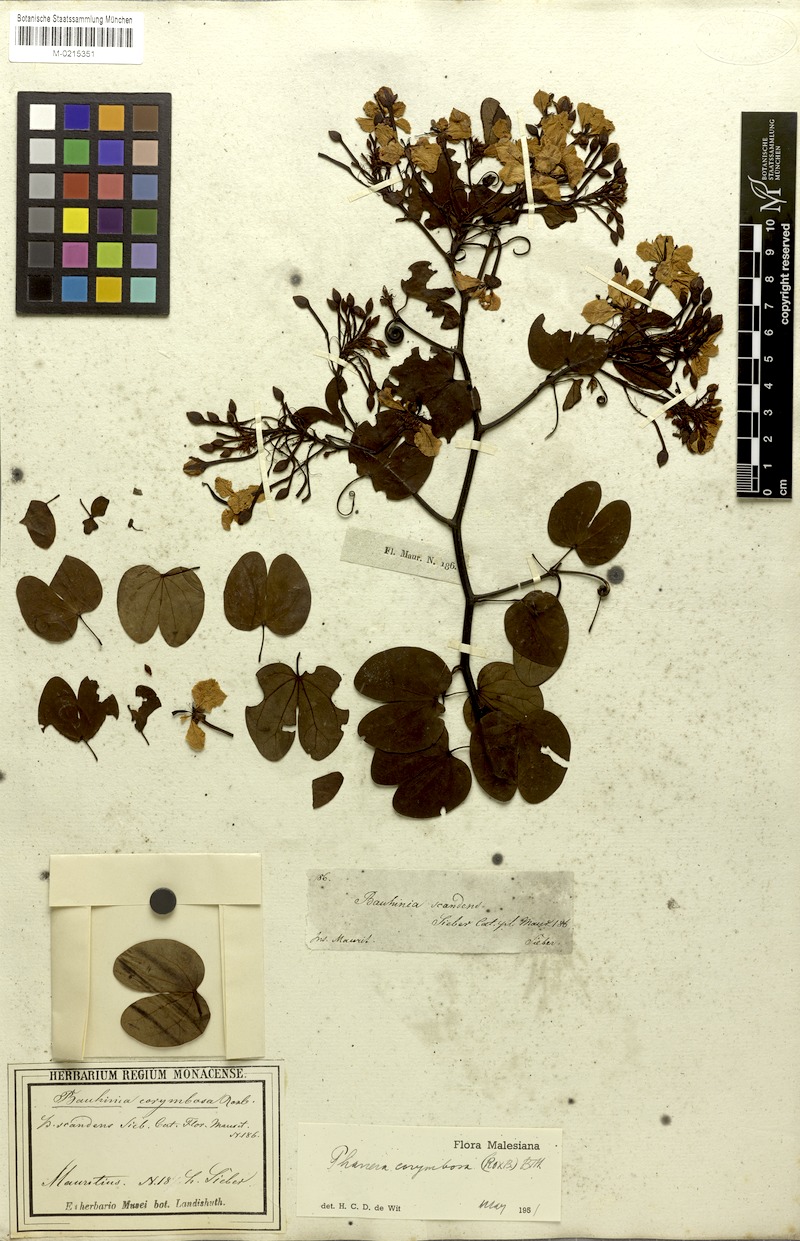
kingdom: Plantae
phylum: Tracheophyta
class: Magnoliopsida
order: Fabales
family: Fabaceae
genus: Cheniella
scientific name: Cheniella corymbosa
